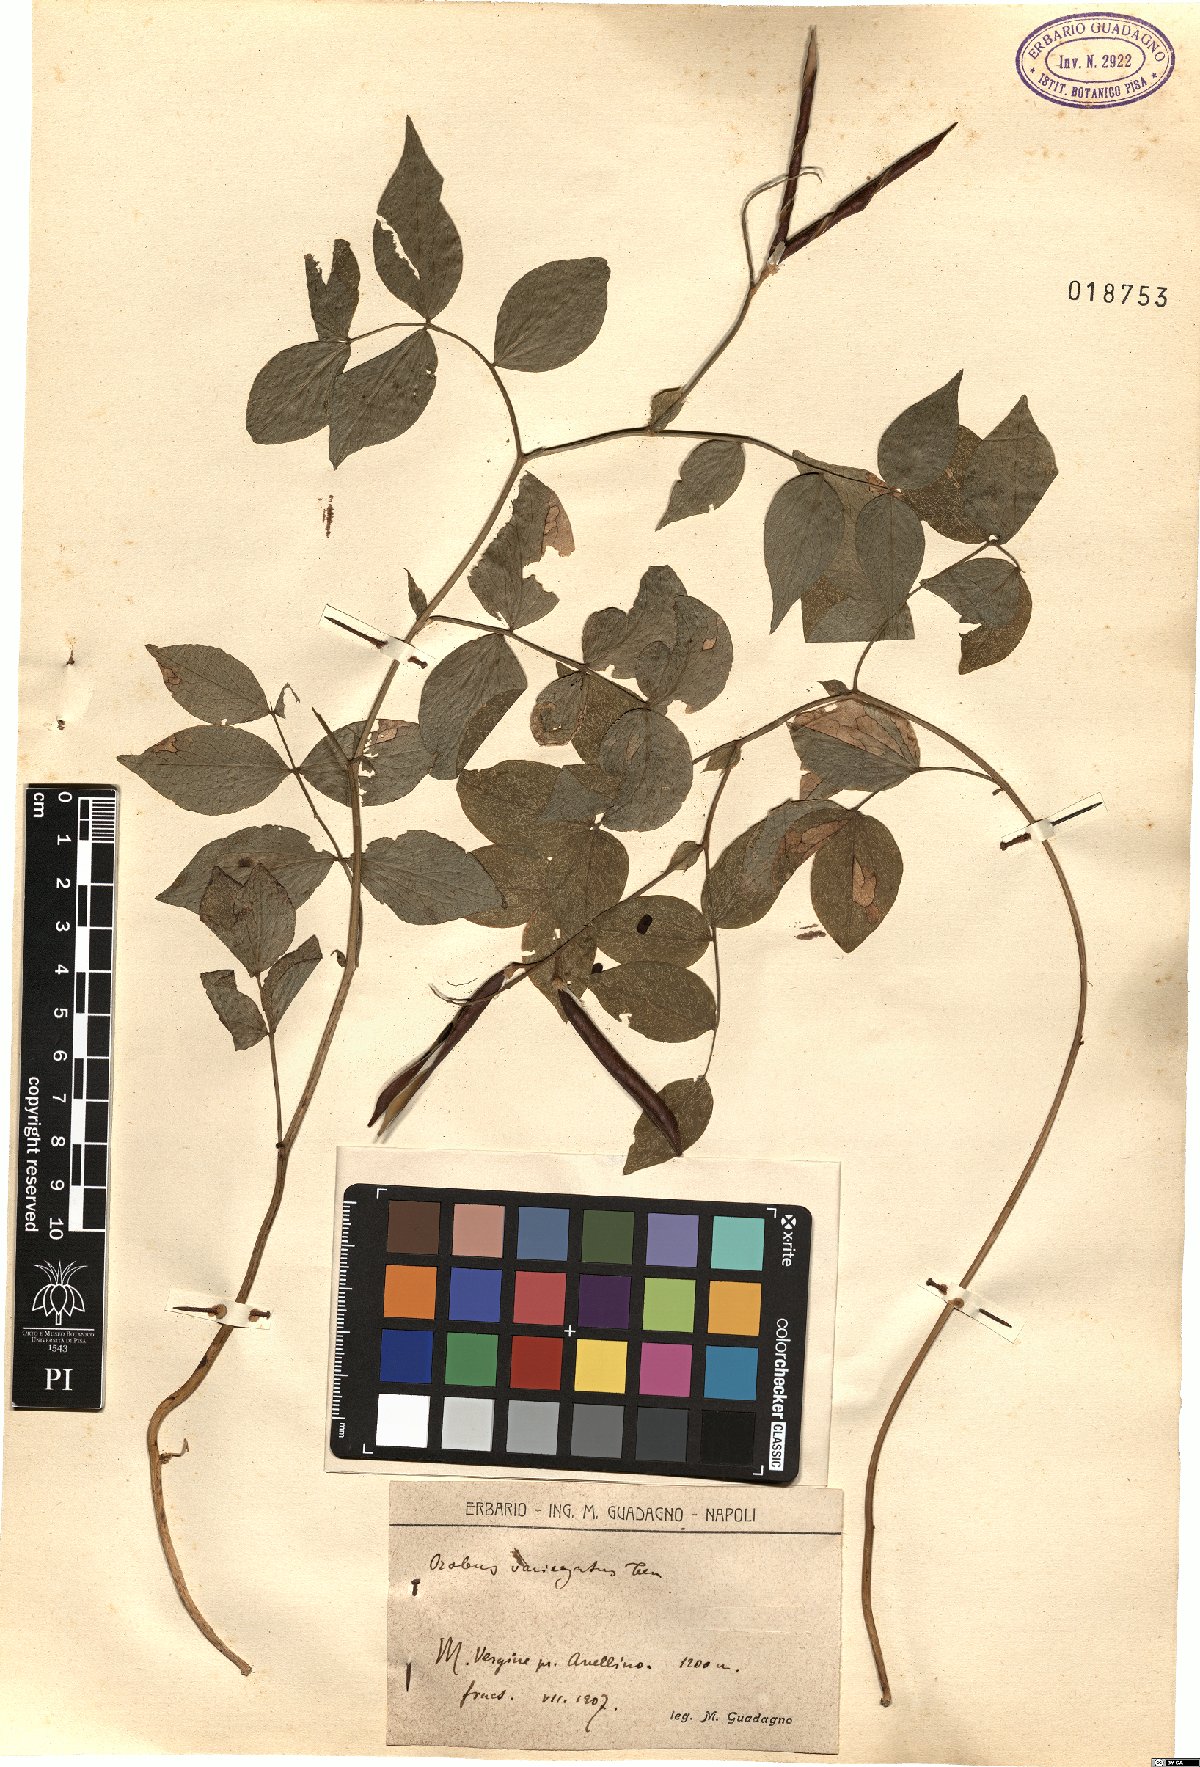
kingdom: Plantae
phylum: Tracheophyta
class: Magnoliopsida
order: Fabales
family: Fabaceae
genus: Lathyrus
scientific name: Lathyrus venetus
